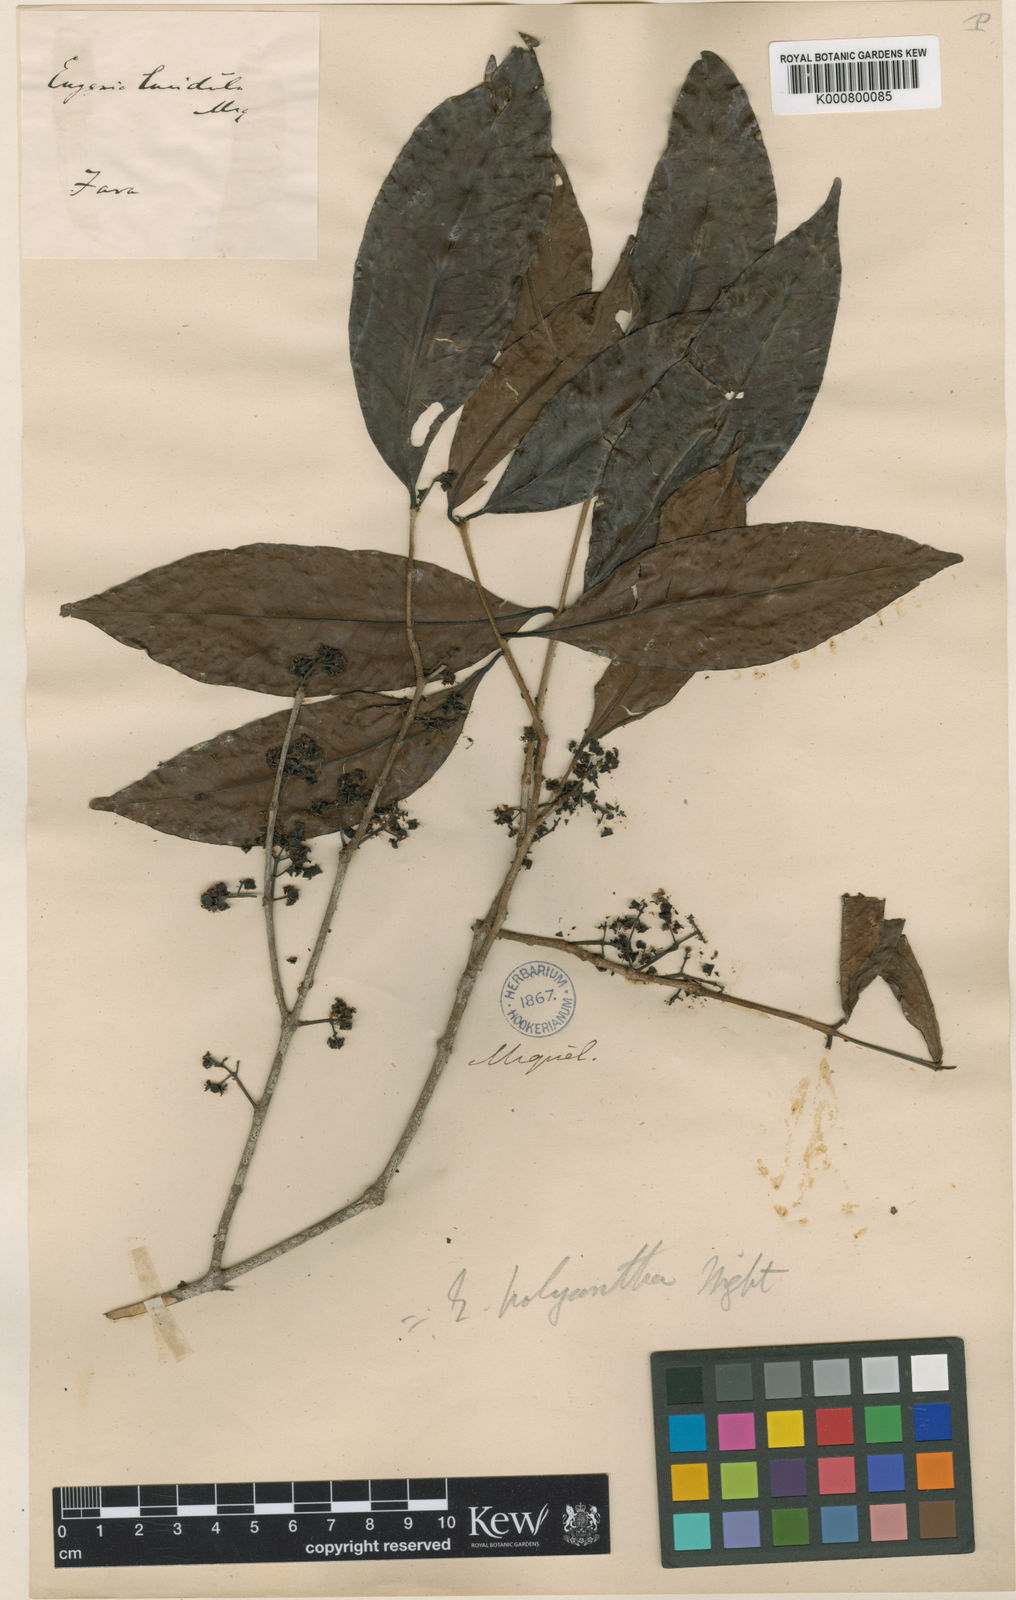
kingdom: Plantae
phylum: Tracheophyta
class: Magnoliopsida
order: Myrtales
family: Myrtaceae
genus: Syzygium
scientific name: Syzygium polyanthum
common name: Indonesian bayleaf
